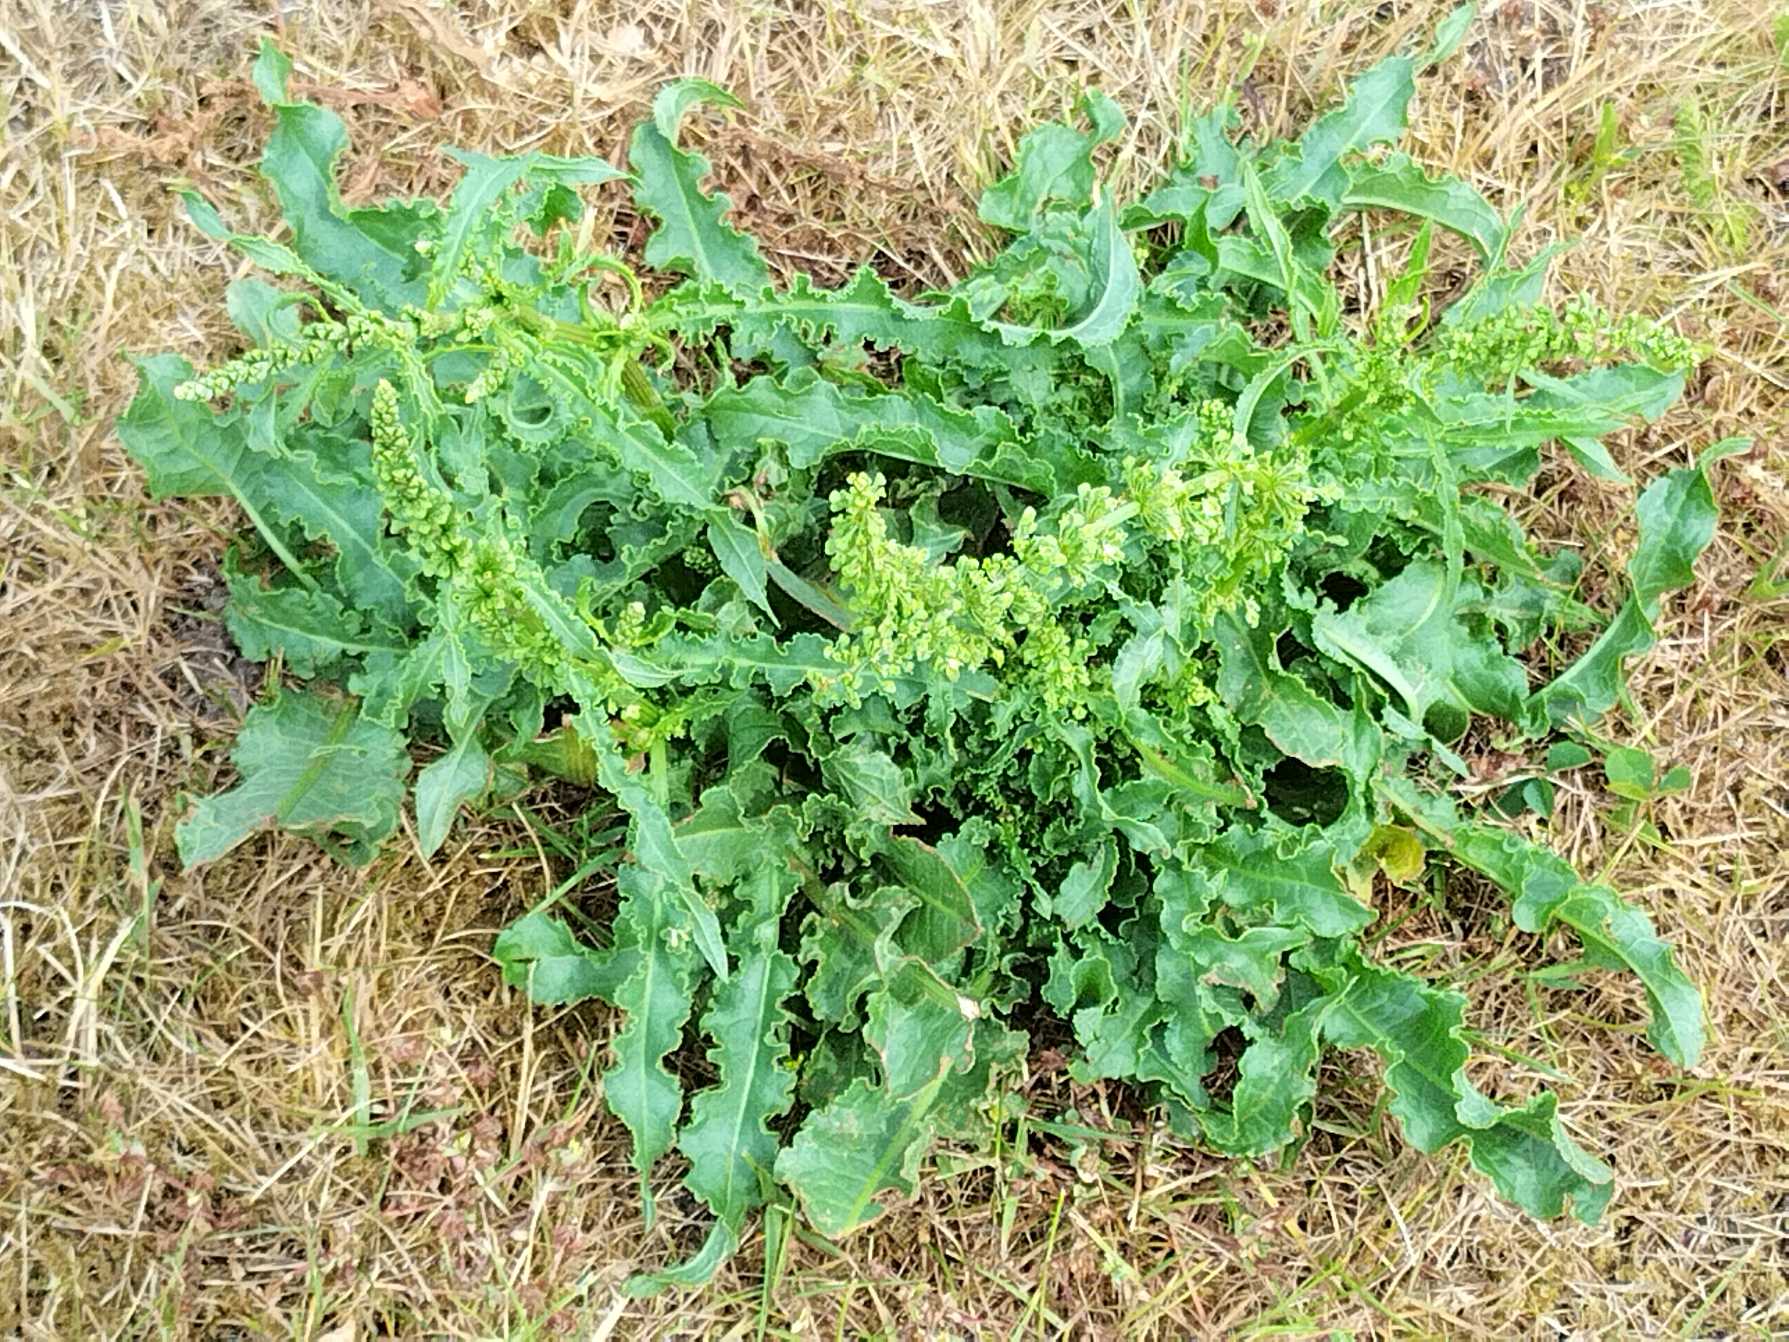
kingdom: Plantae
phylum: Tracheophyta
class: Magnoliopsida
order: Caryophyllales
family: Polygonaceae
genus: Rumex
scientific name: Rumex crispus
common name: Kruset skræppe
